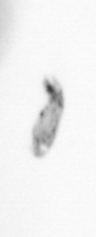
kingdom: Animalia
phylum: Arthropoda
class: Copepoda
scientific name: Copepoda
